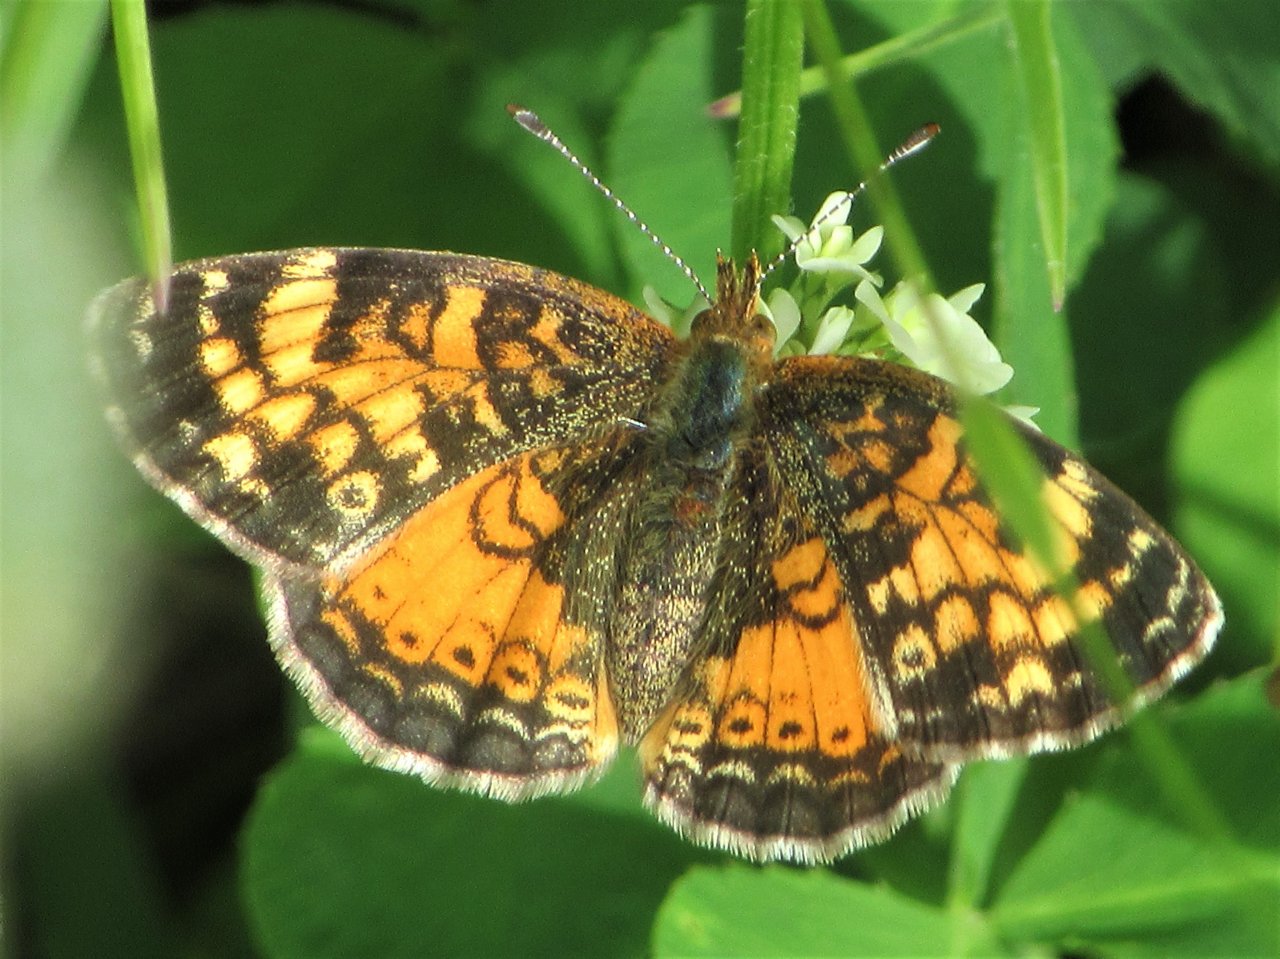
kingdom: Animalia
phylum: Arthropoda
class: Insecta
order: Lepidoptera
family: Nymphalidae
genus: Phyciodes
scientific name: Phyciodes tharos
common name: Pearl Crescent
